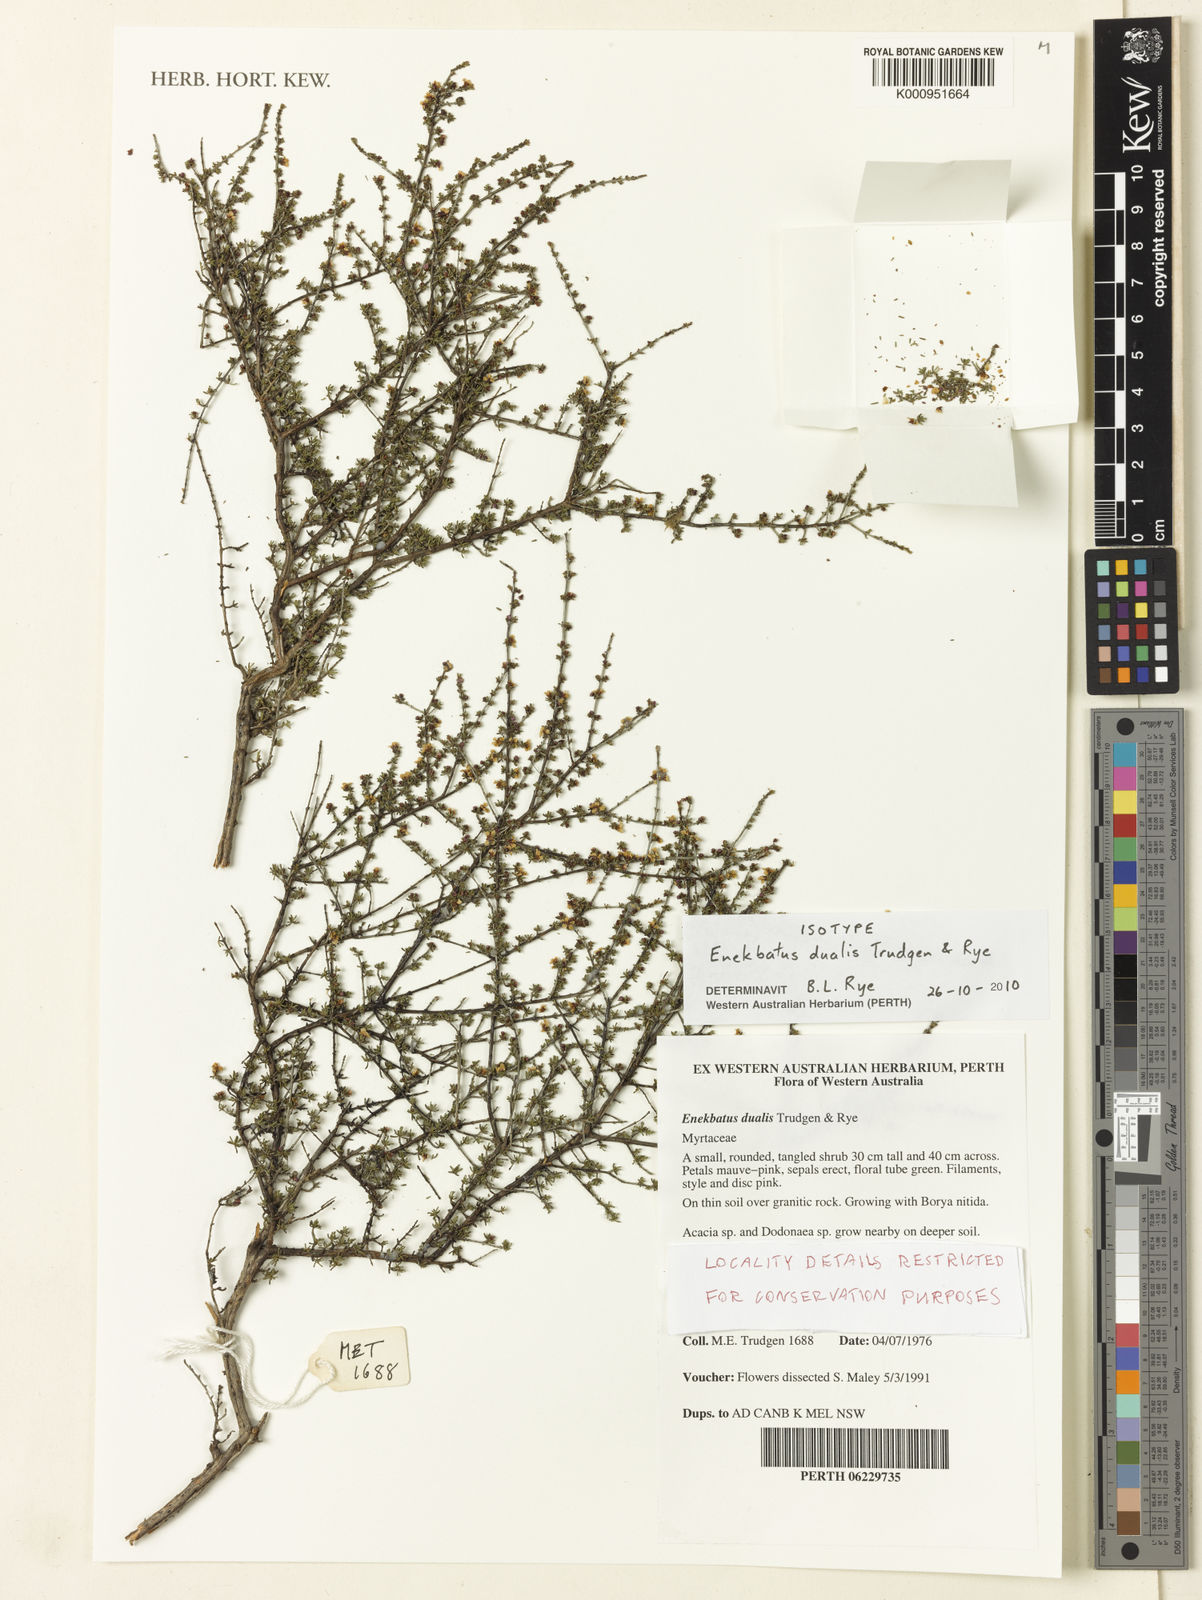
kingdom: Plantae
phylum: Tracheophyta
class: Magnoliopsida
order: Myrtales
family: Myrtaceae
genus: Enekbatus
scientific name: Enekbatus dualis
